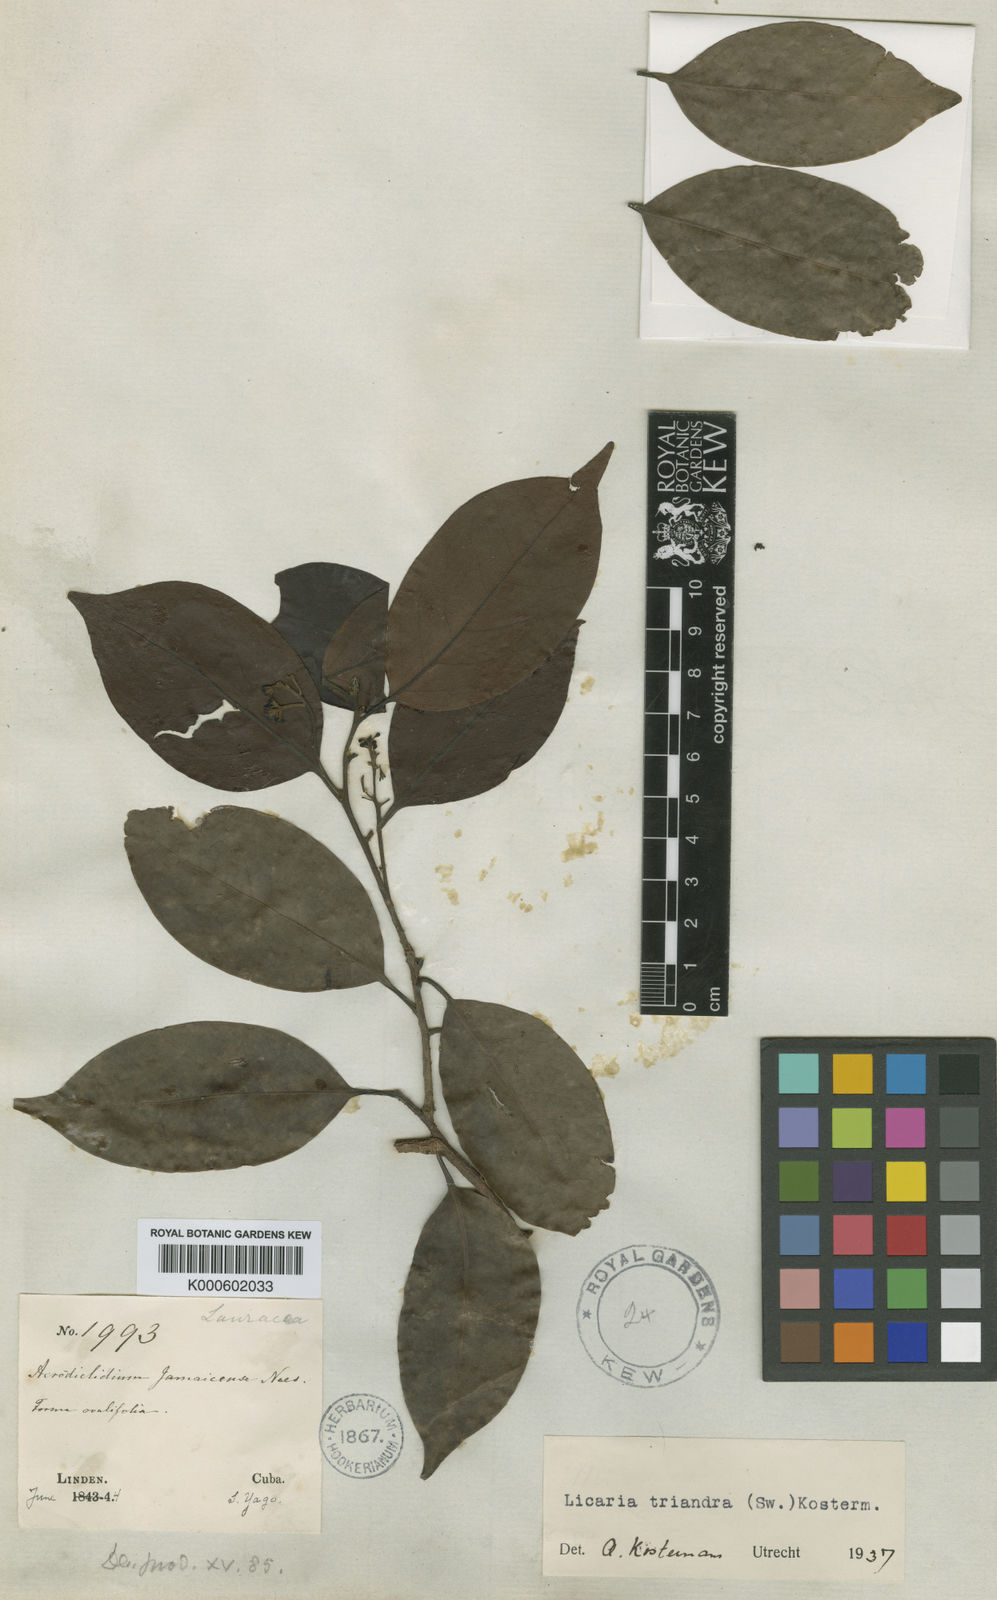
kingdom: Plantae
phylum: Tracheophyta
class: Magnoliopsida
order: Laurales
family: Lauraceae
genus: Licaria
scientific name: Licaria triandra
